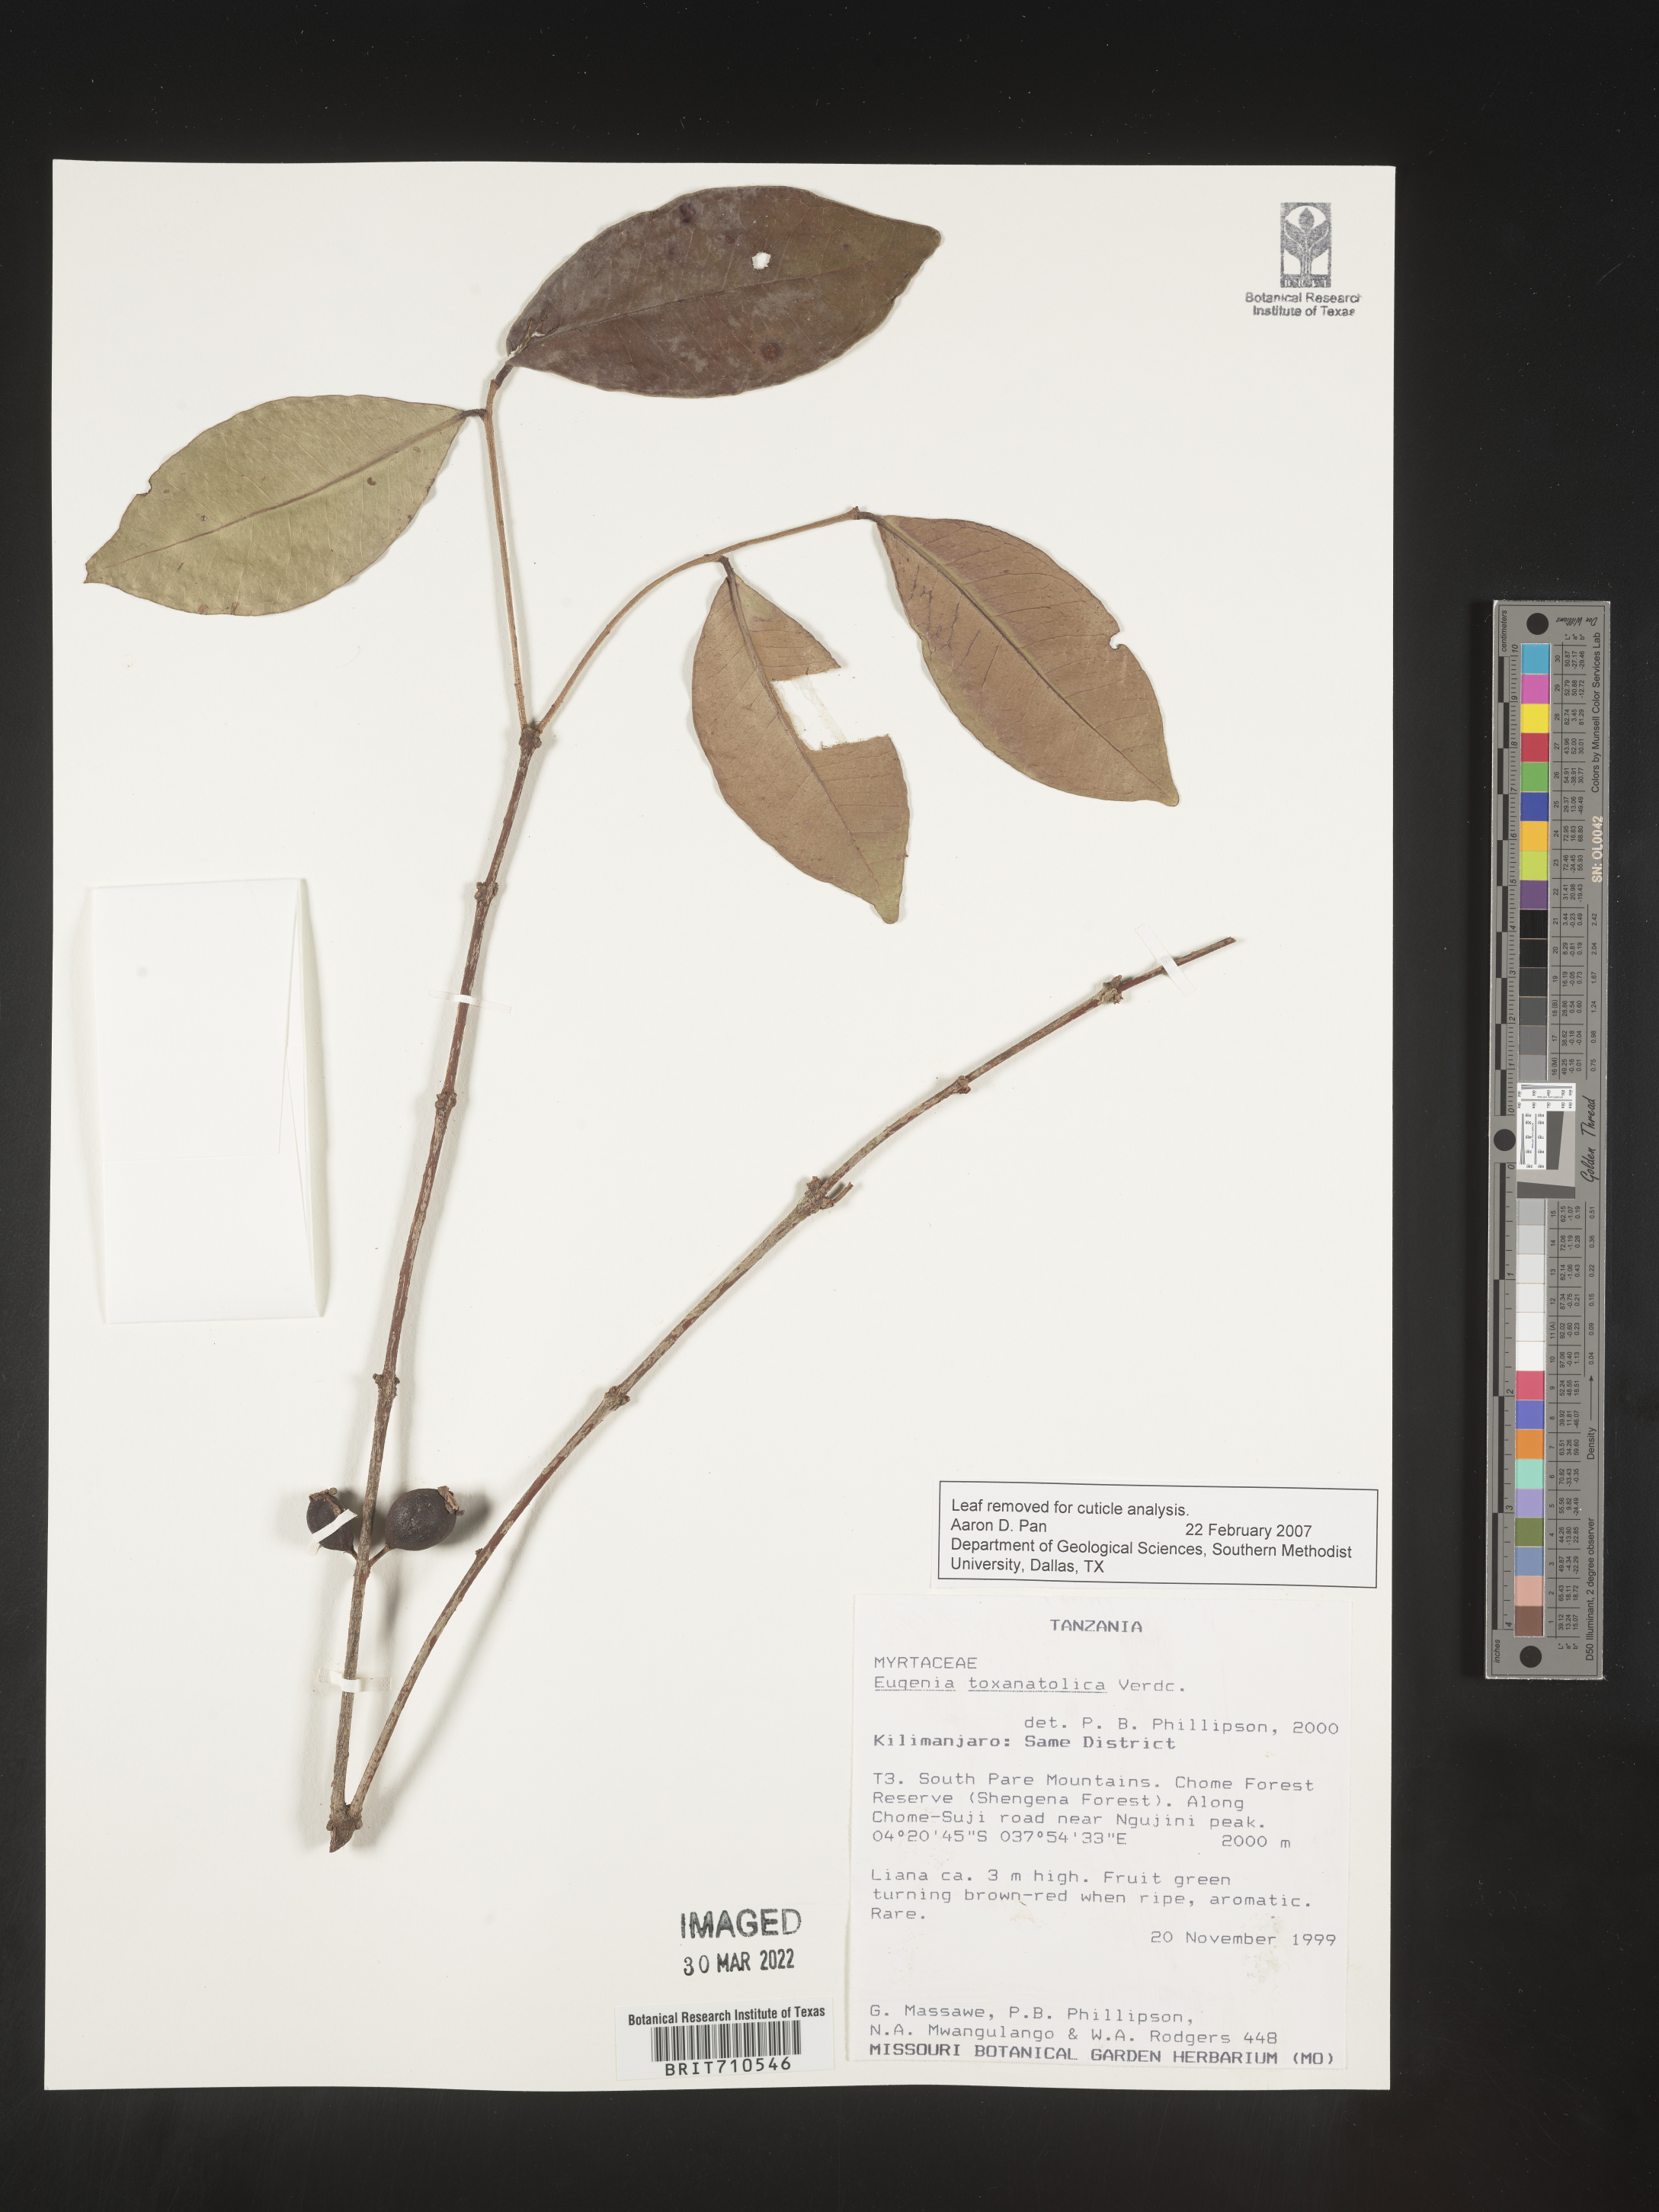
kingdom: Plantae
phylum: Tracheophyta
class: Magnoliopsida
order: Myrtales
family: Myrtaceae
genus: Eugenia
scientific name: Eugenia
